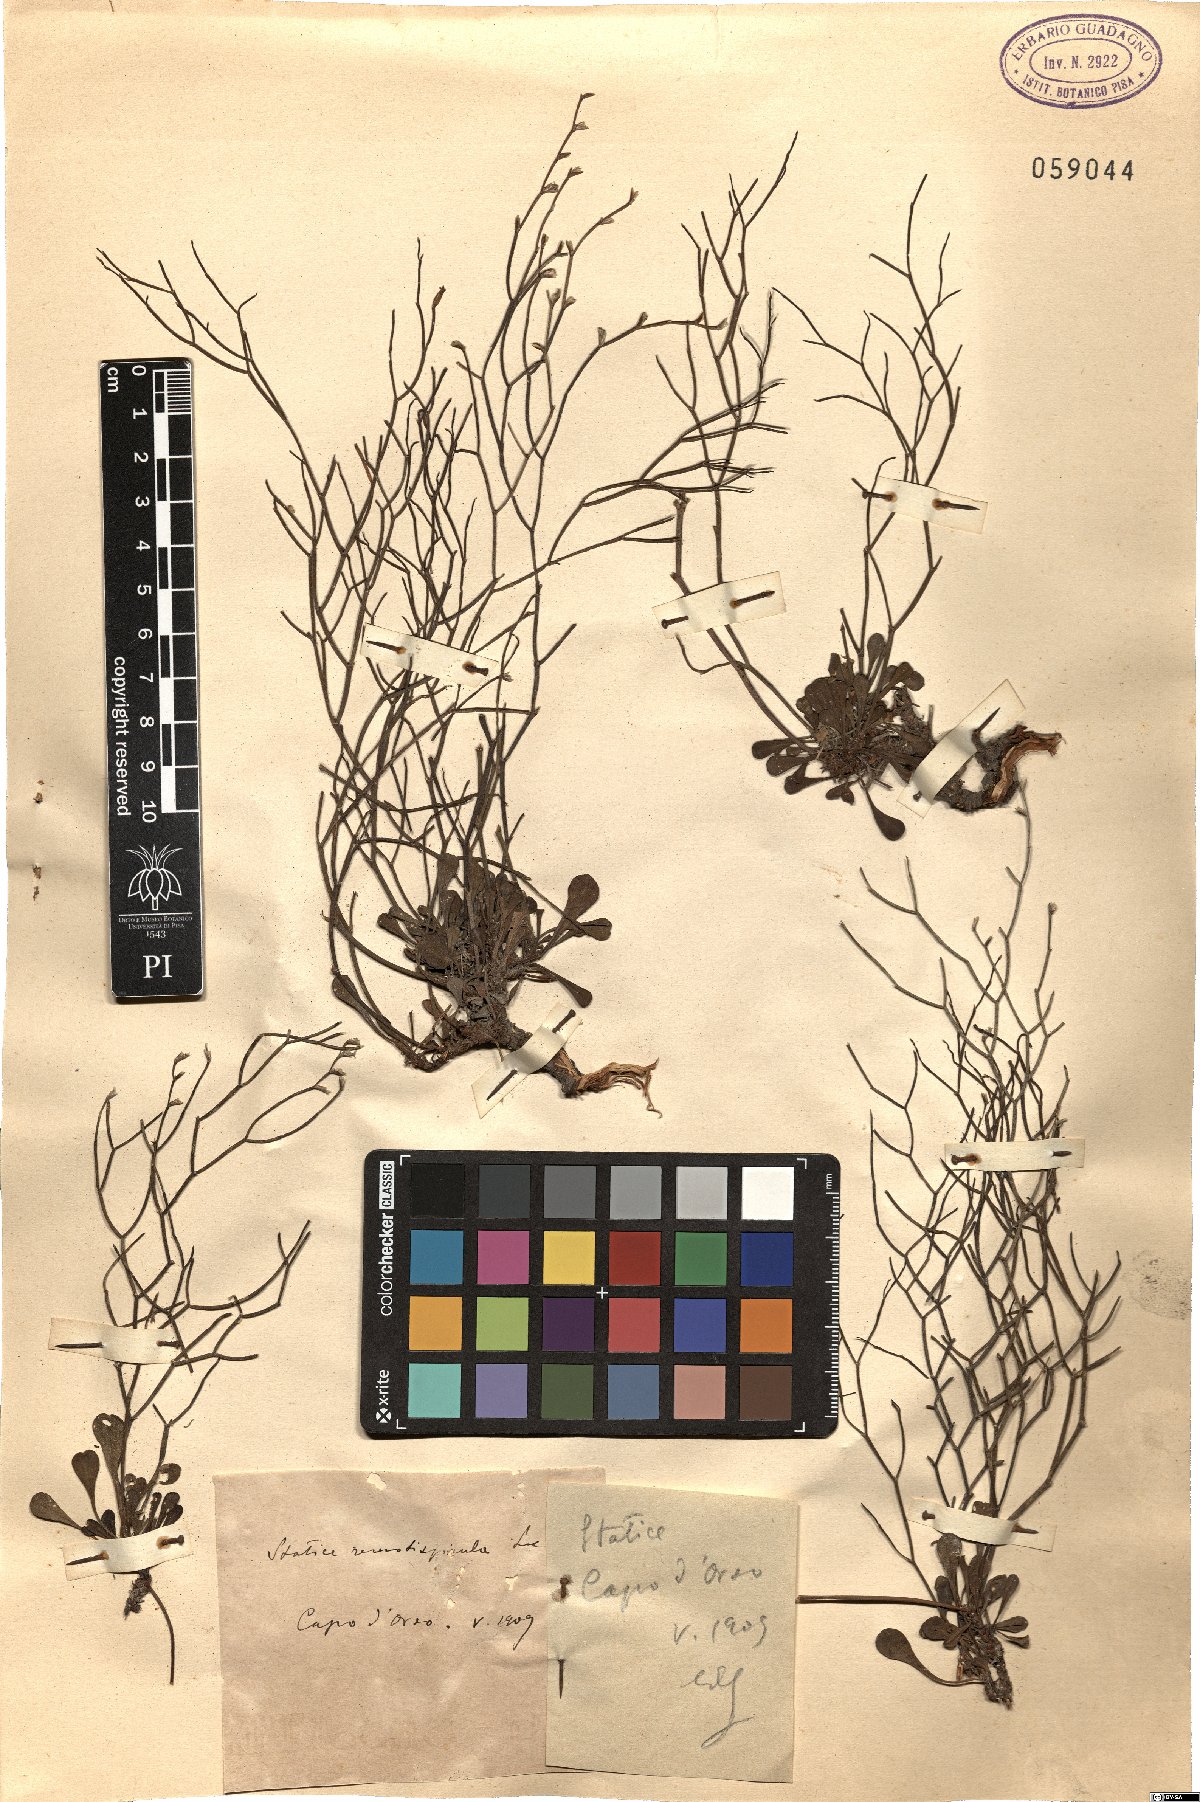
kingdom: Plantae
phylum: Tracheophyta
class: Magnoliopsida
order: Caryophyllales
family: Plumbaginaceae
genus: Limonium
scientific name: Limonium remotispiculum
